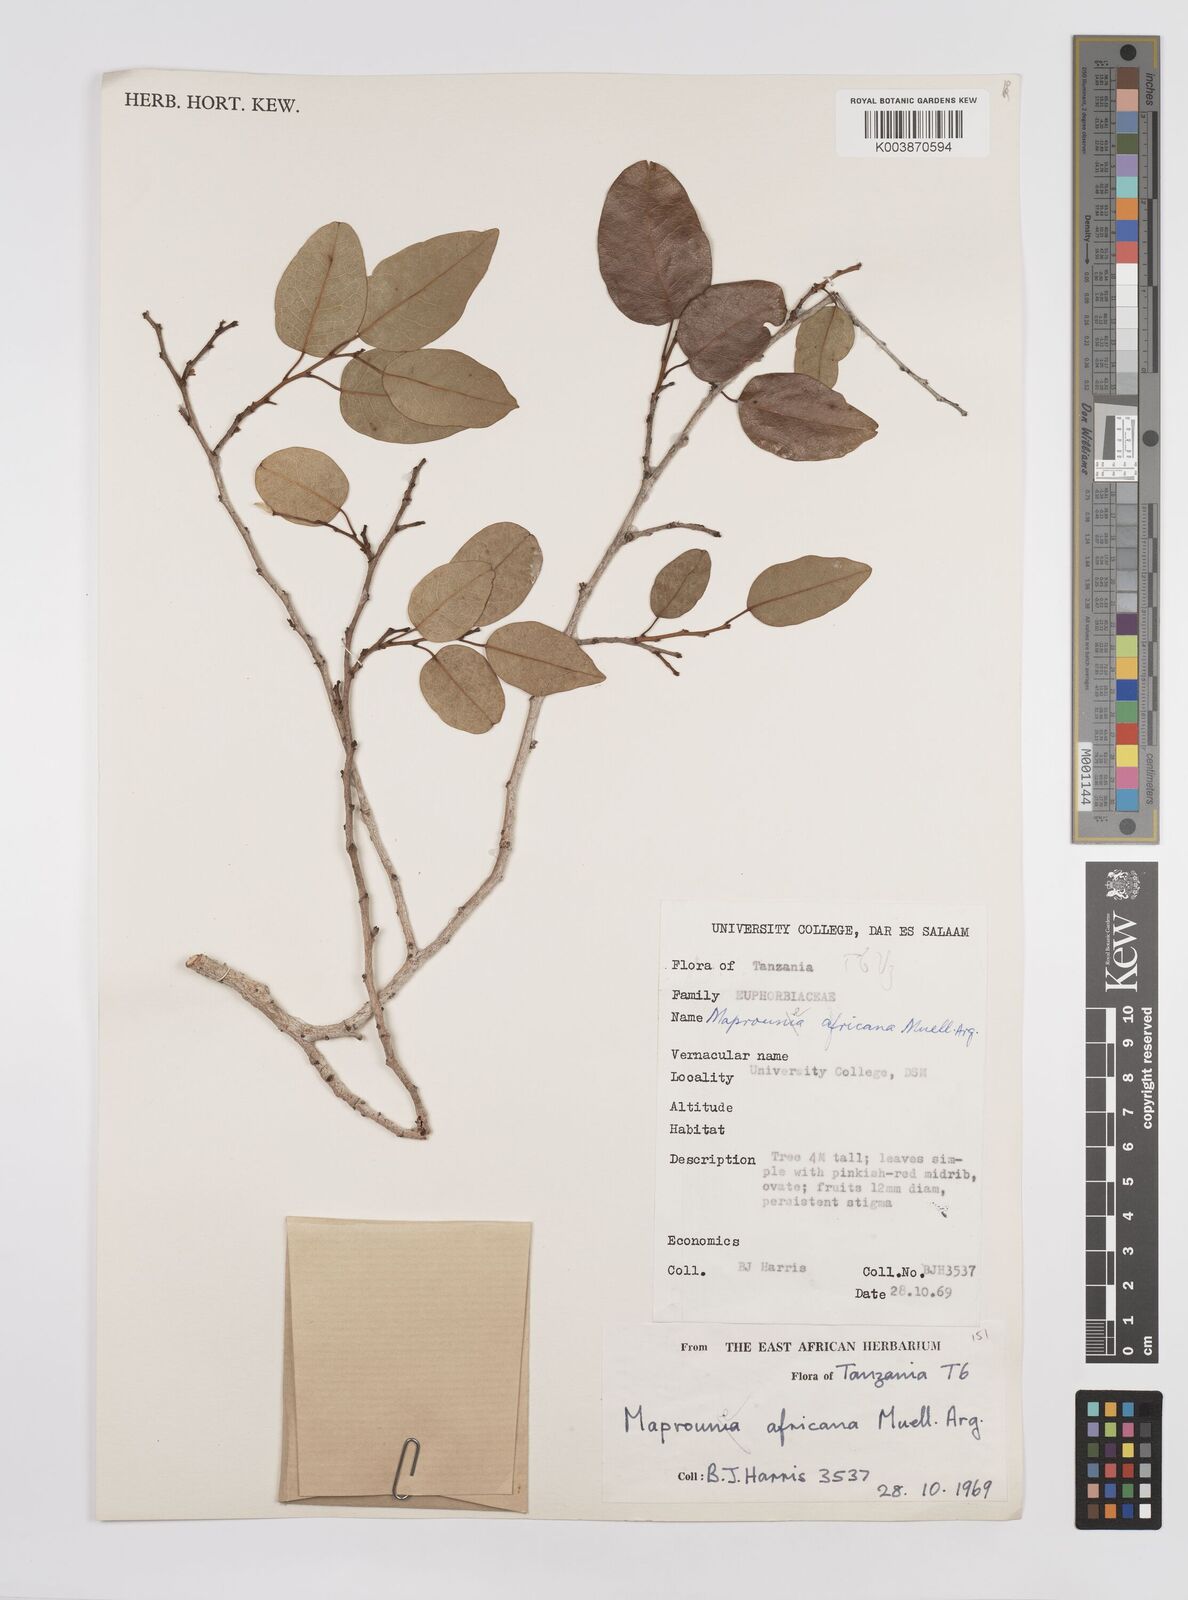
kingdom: Plantae
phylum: Tracheophyta
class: Magnoliopsida
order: Malpighiales
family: Euphorbiaceae
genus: Maprounea
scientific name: Maprounea africana
